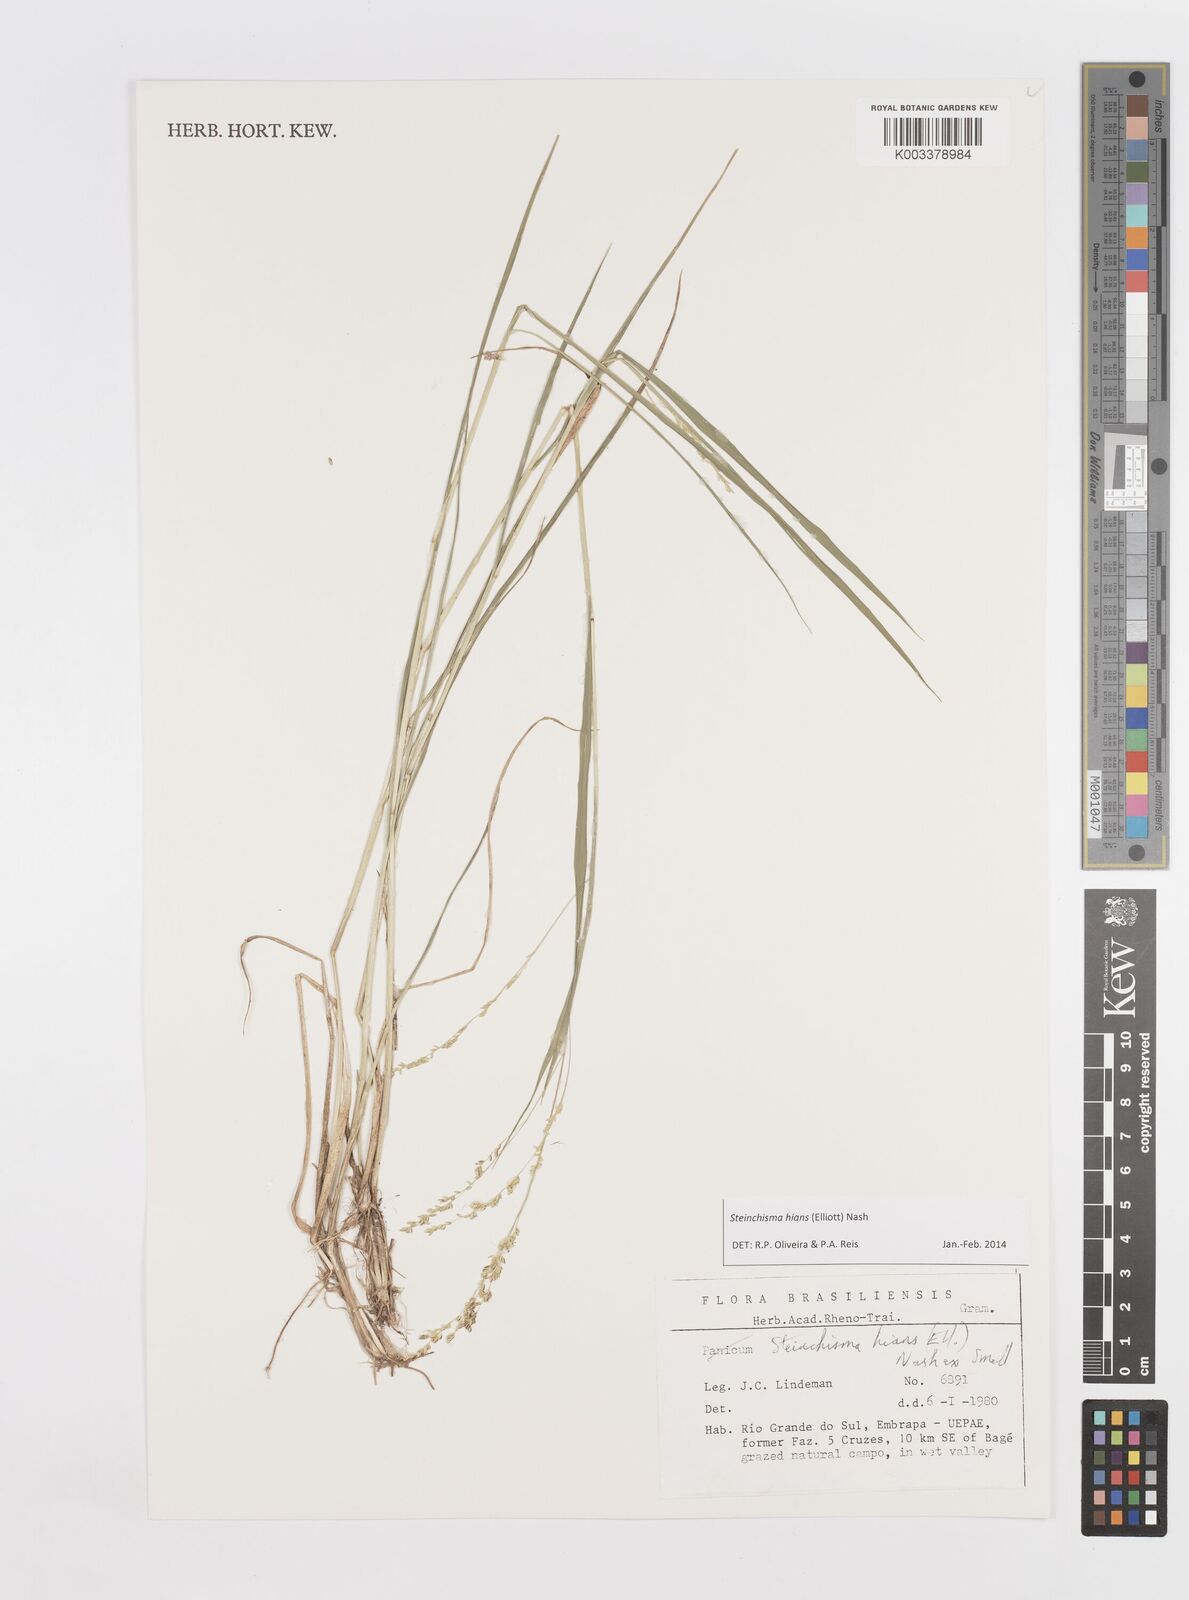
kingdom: Plantae
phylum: Tracheophyta
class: Liliopsida
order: Poales
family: Poaceae
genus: Steinchisma
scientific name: Steinchisma hians
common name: Gaping panic grass
